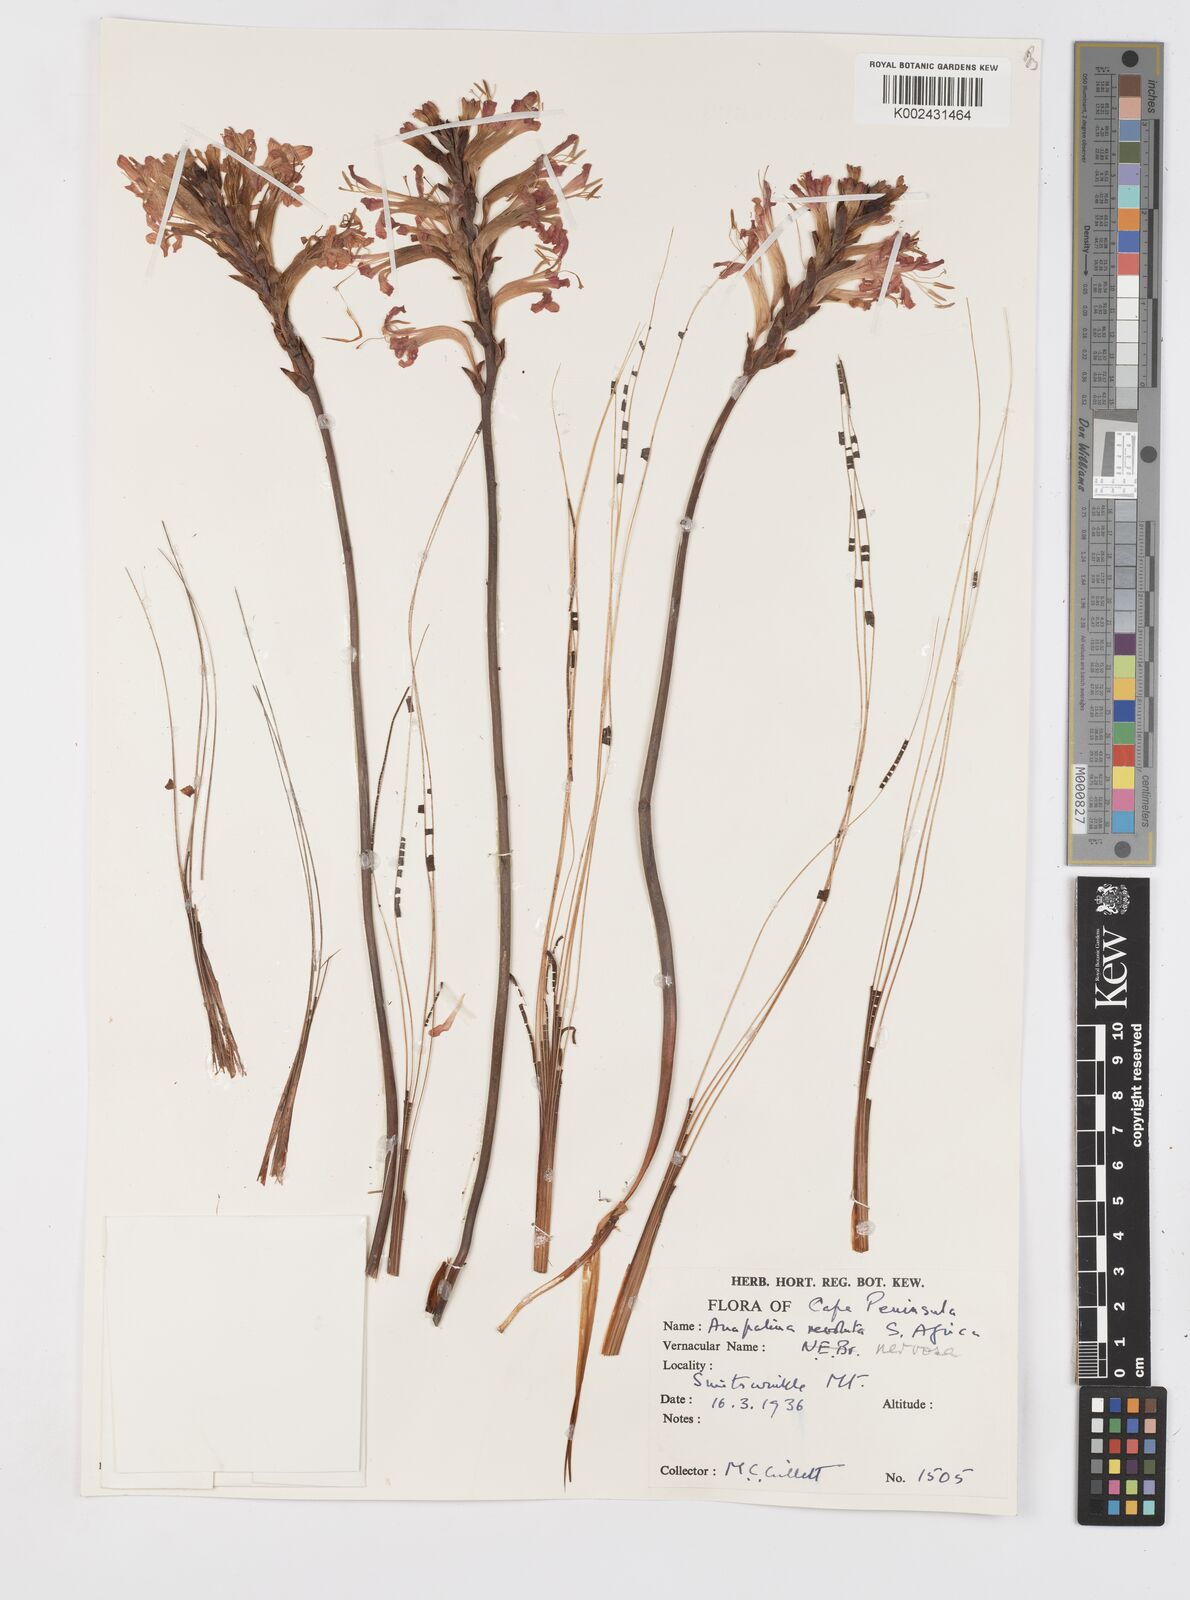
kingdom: Plantae
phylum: Tracheophyta
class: Liliopsida
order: Asparagales
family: Iridaceae
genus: Tritoniopsis
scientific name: Tritoniopsis nervosa
